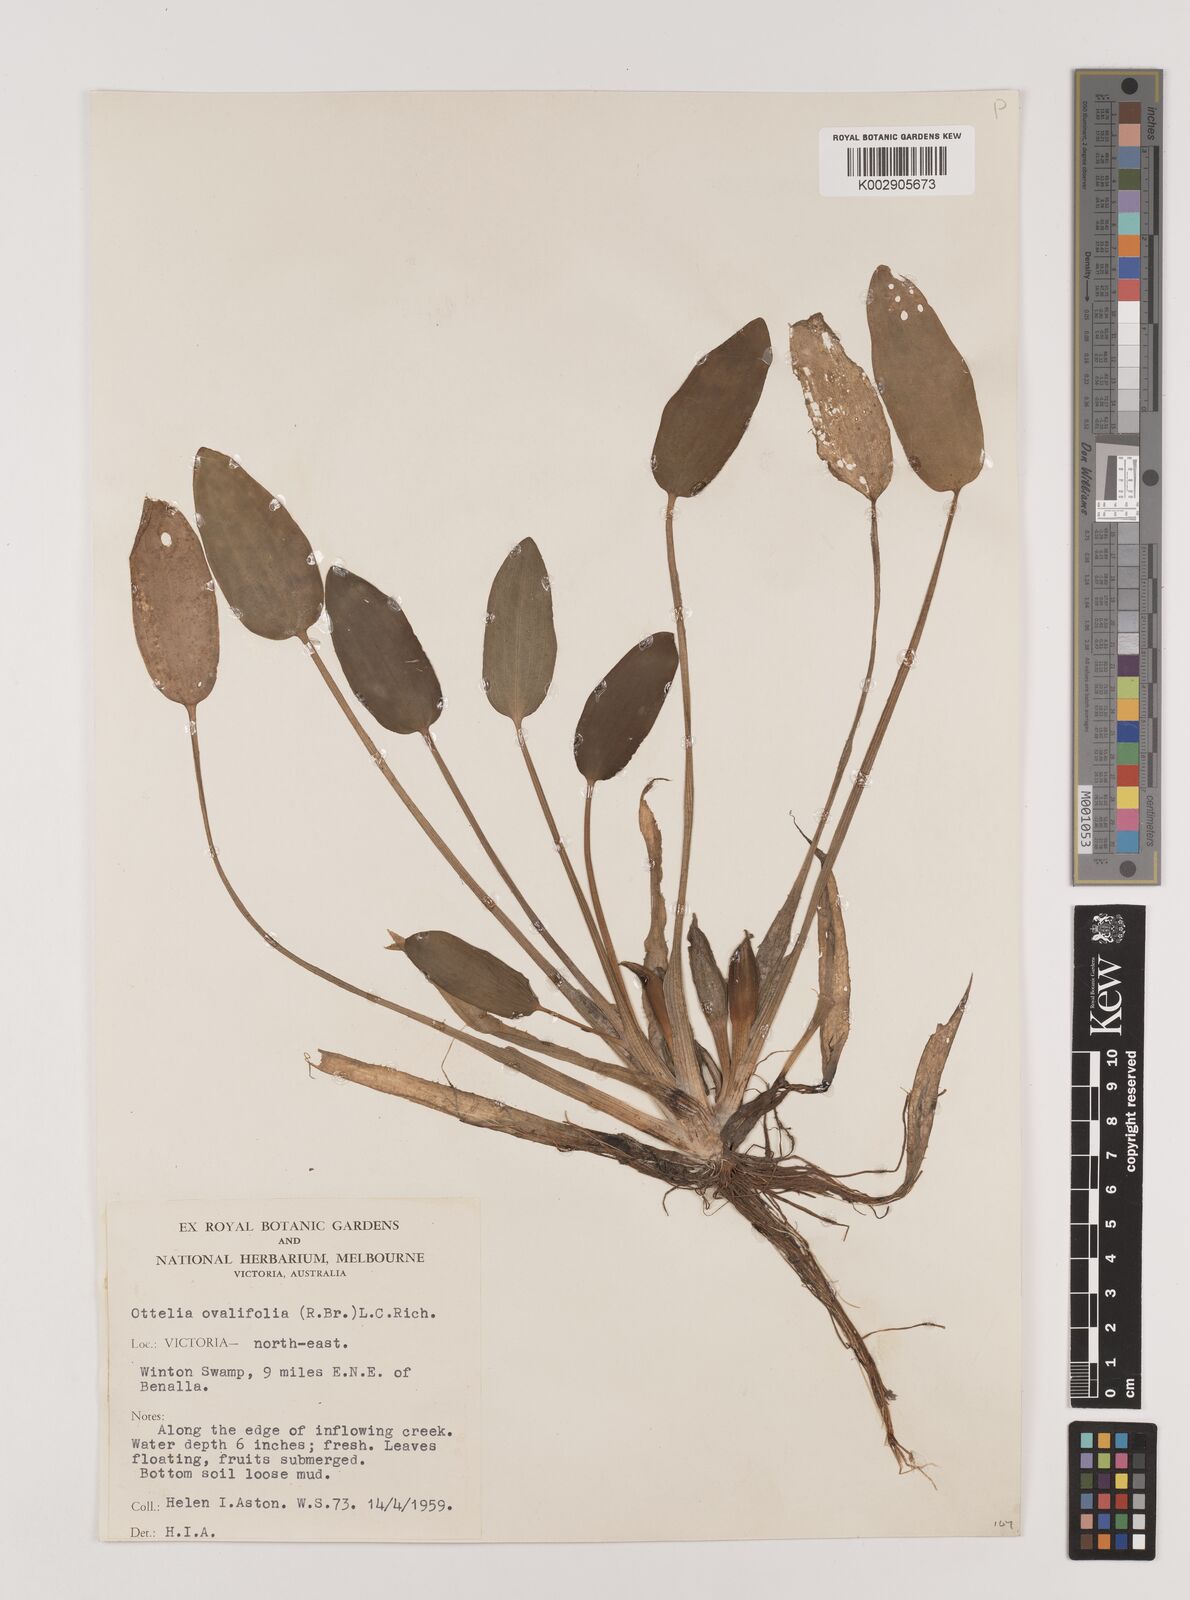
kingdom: Plantae
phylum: Tracheophyta
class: Liliopsida
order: Alismatales
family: Hydrocharitaceae
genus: Ottelia
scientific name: Ottelia ovalifolia
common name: Swamp-lily
